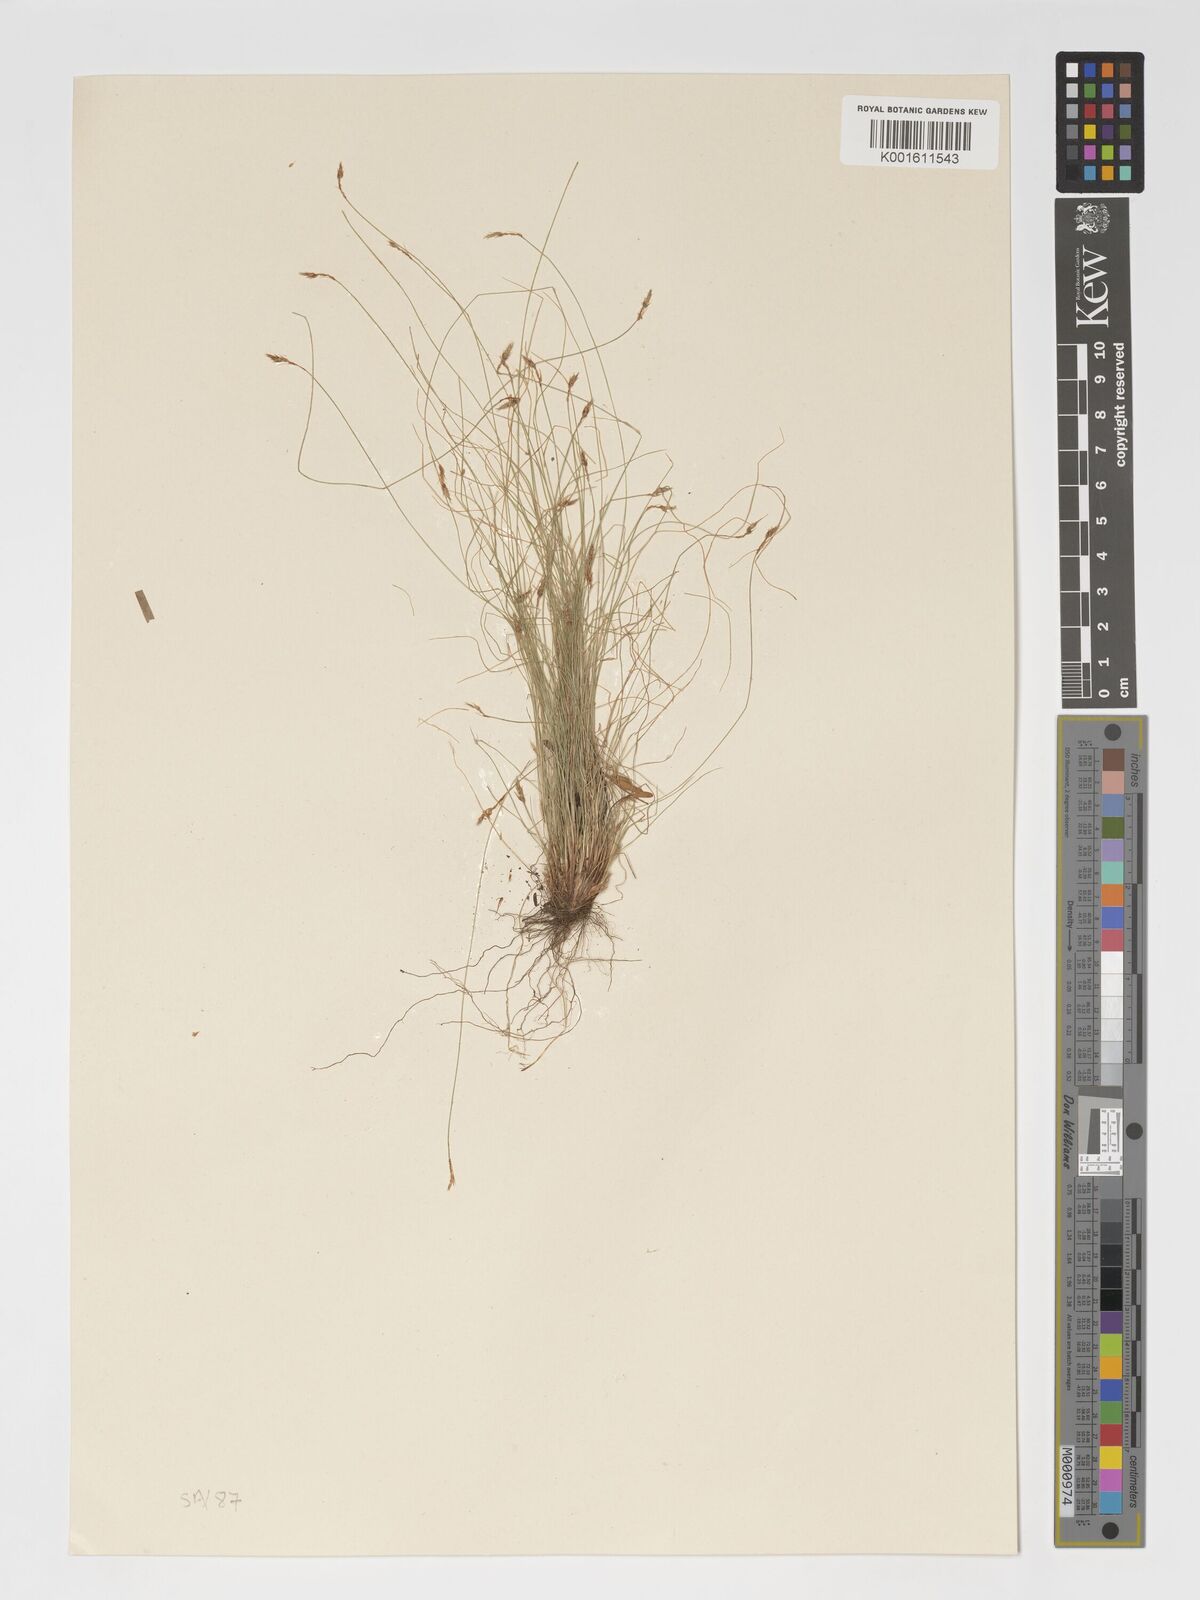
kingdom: Plantae
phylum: Tracheophyta
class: Liliopsida
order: Poales
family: Cyperaceae
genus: Bulbostylis
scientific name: Bulbostylis humilis
